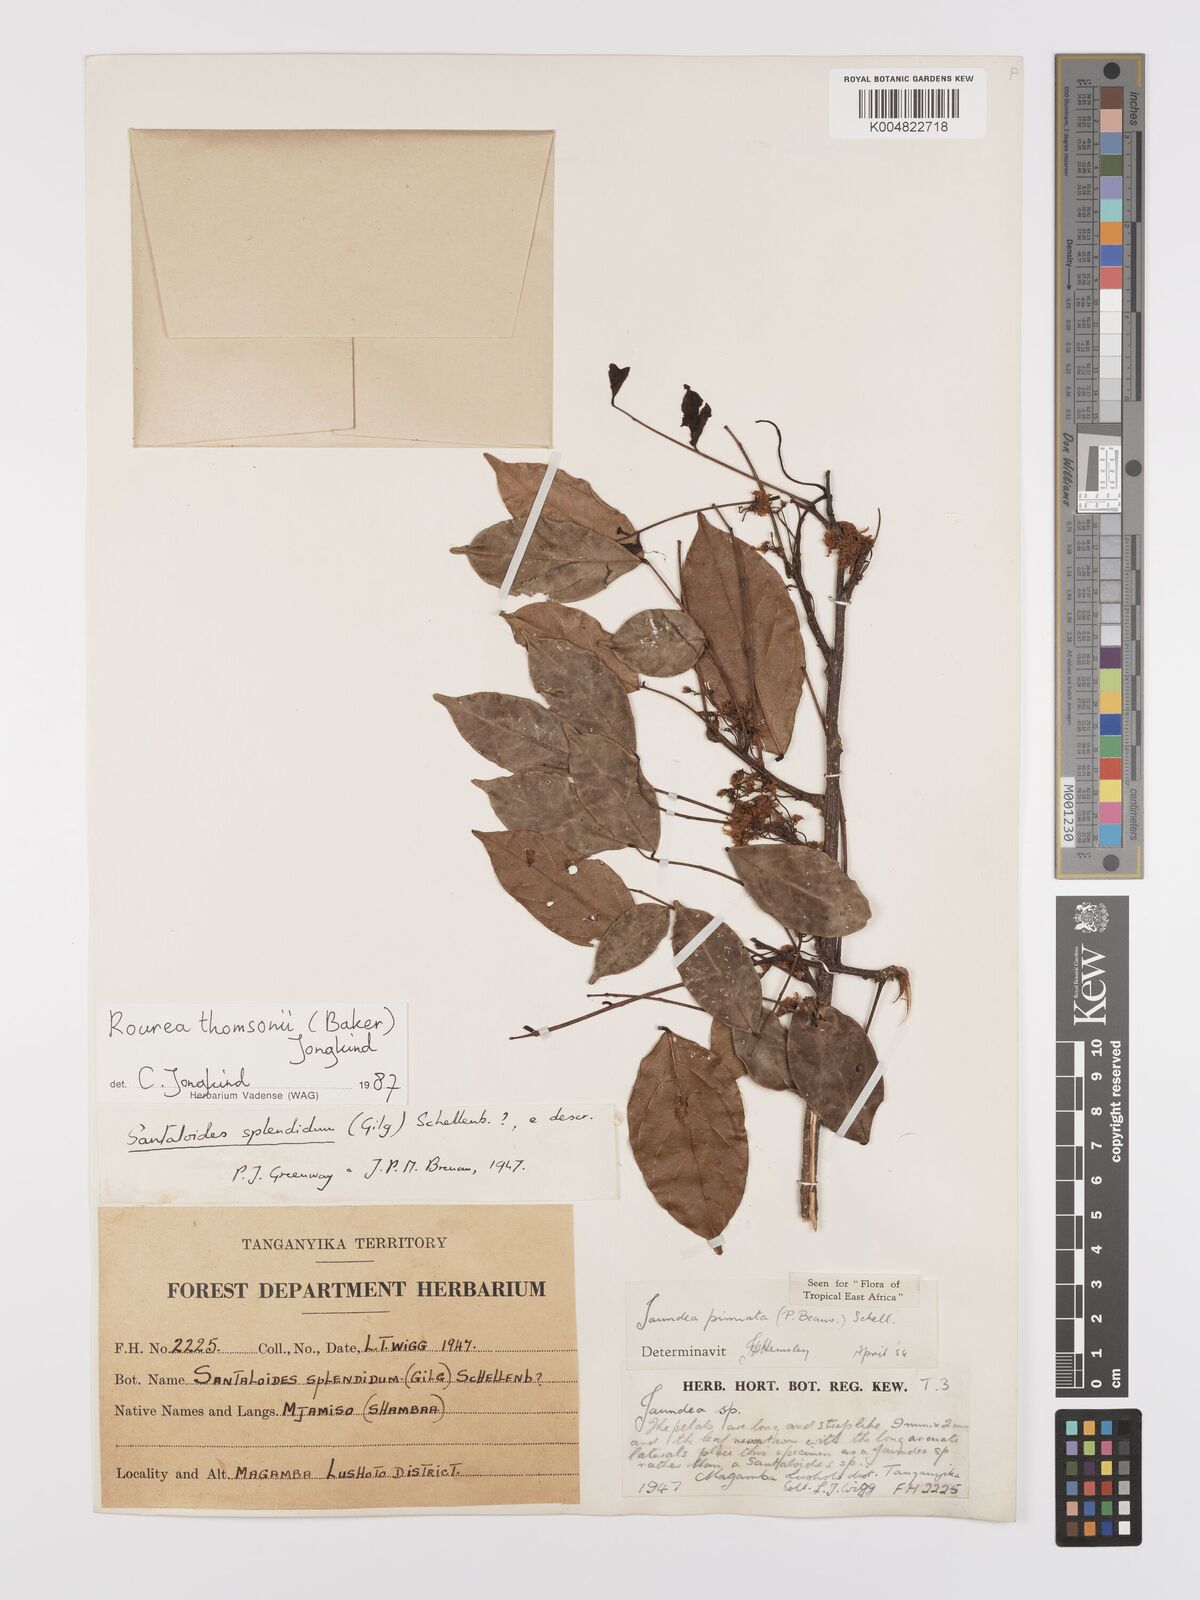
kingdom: Plantae
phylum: Tracheophyta
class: Magnoliopsida
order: Oxalidales
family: Connaraceae
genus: Rourea
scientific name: Rourea pinnata
